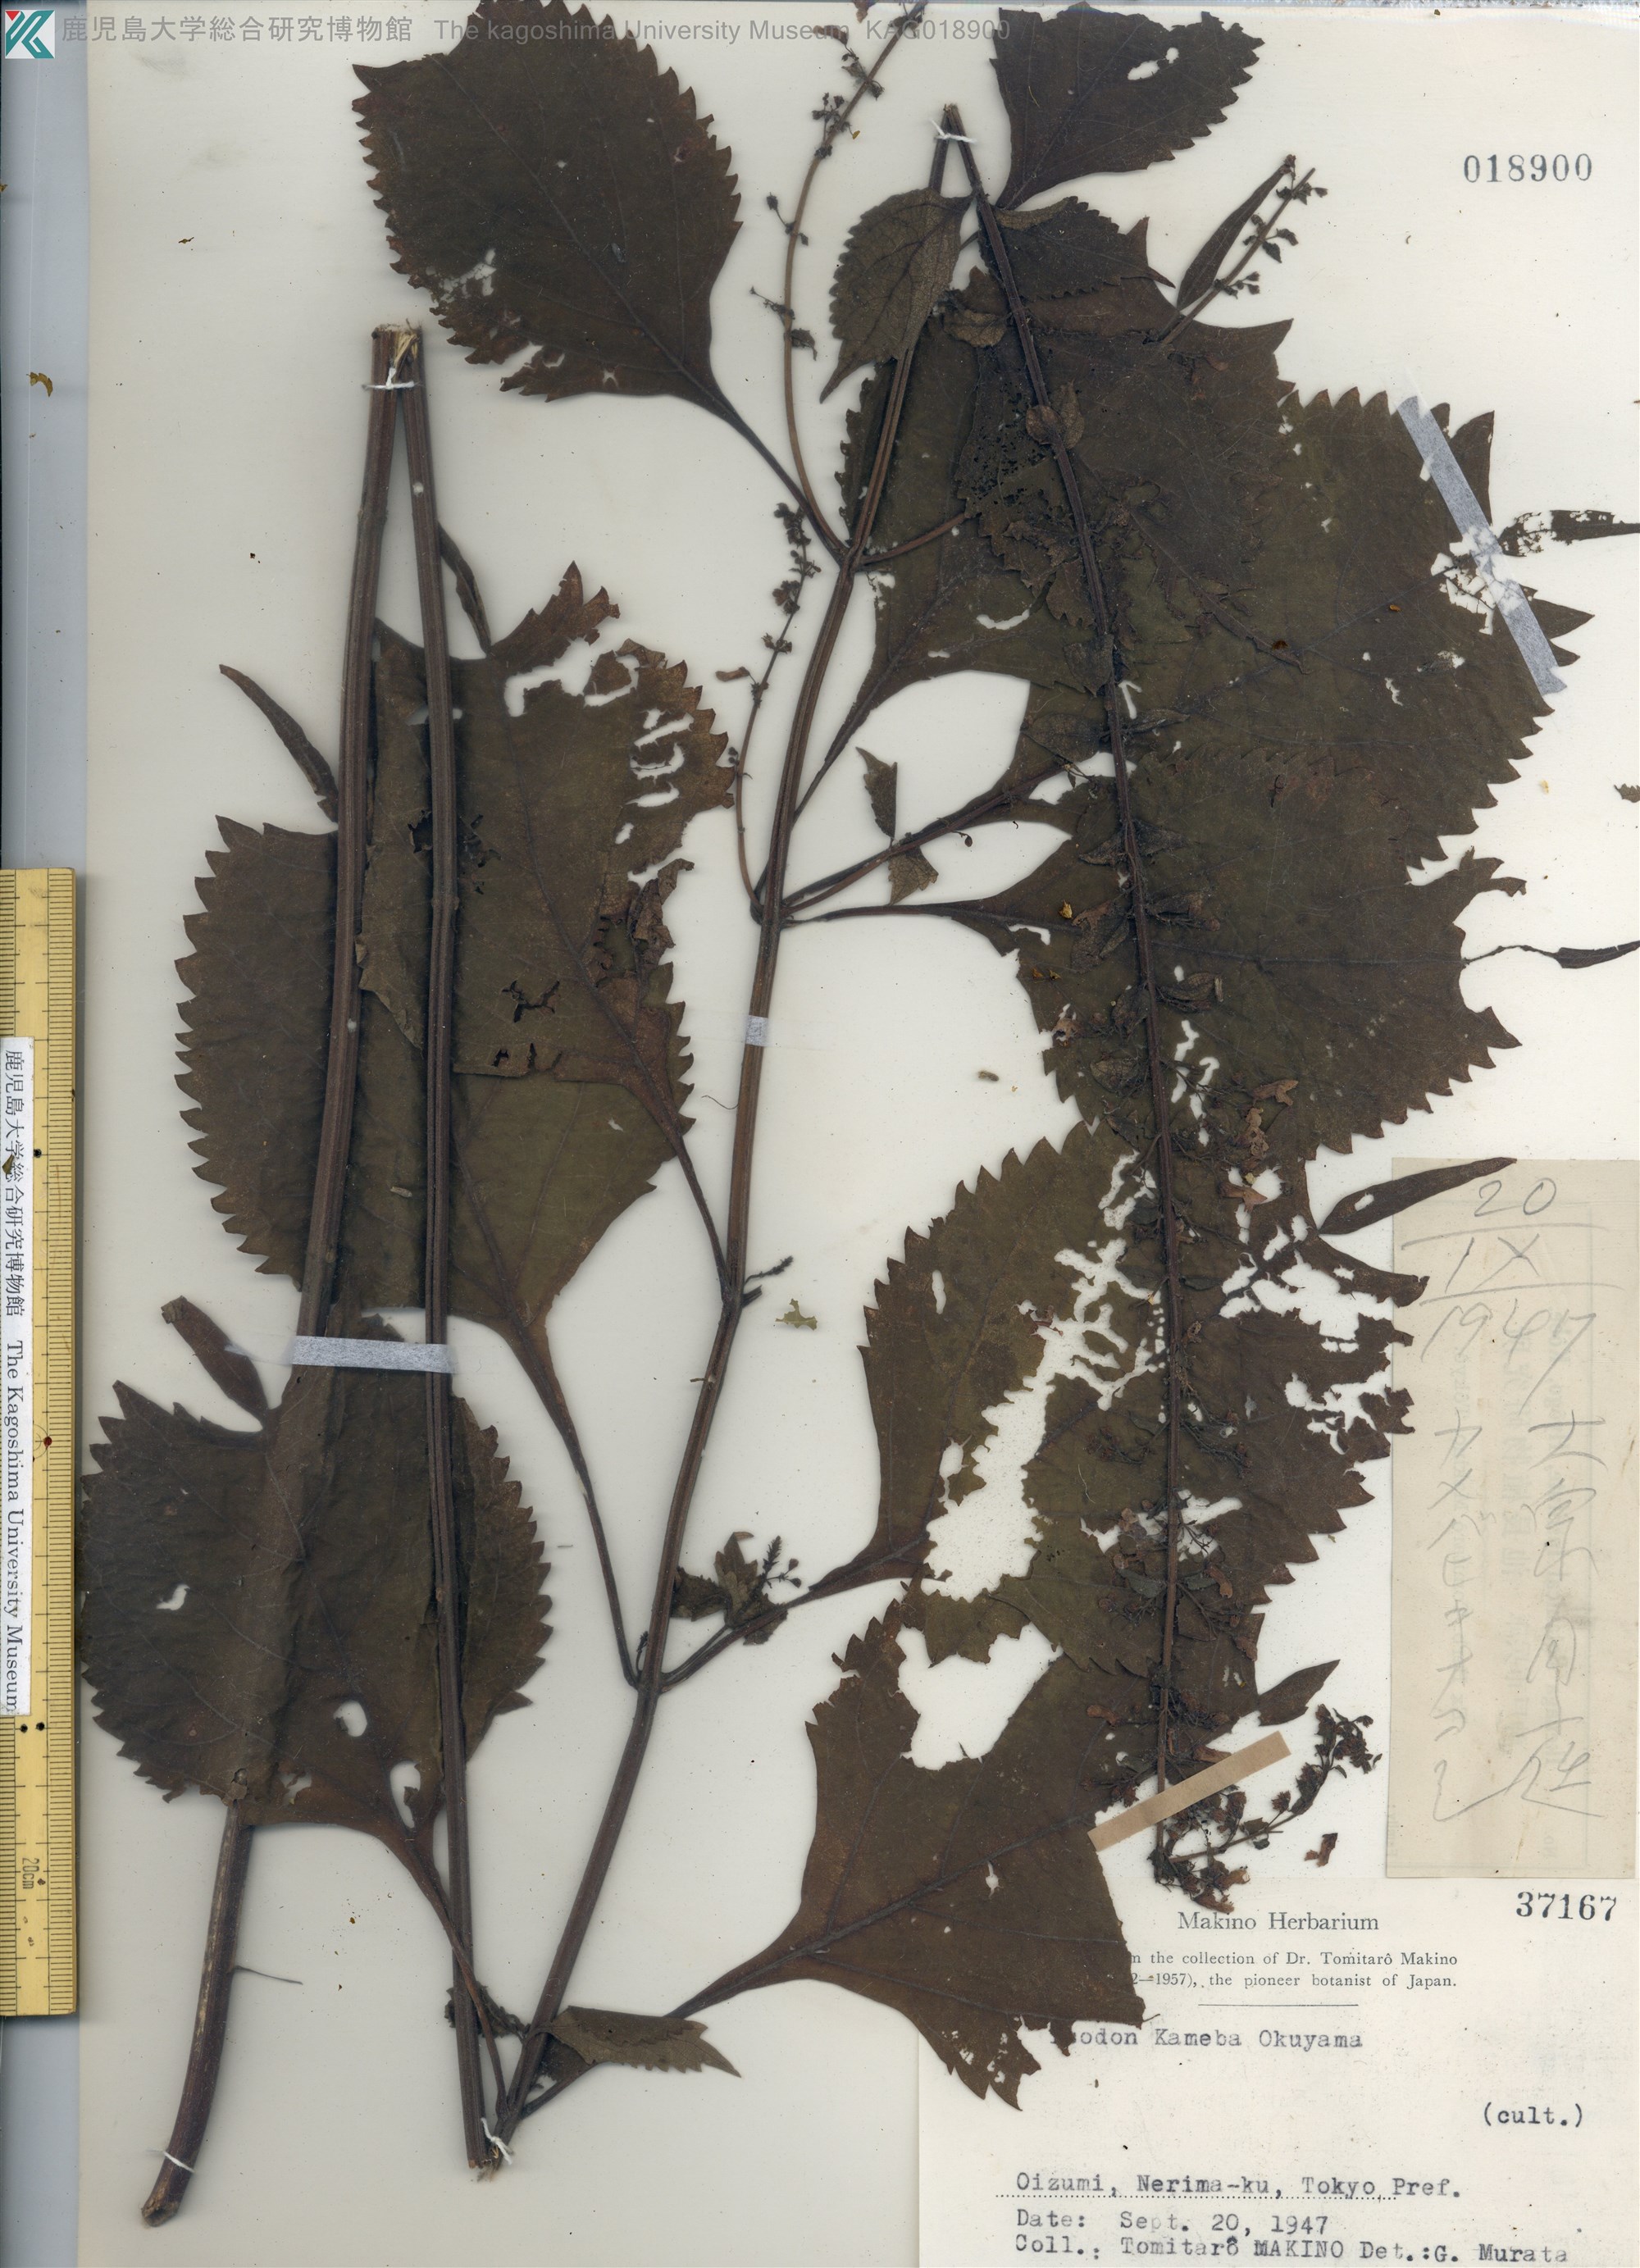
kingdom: Plantae
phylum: Tracheophyta
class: Magnoliopsida
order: Lamiales
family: Lamiaceae
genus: Isodon
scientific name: Isodon umbrosus
